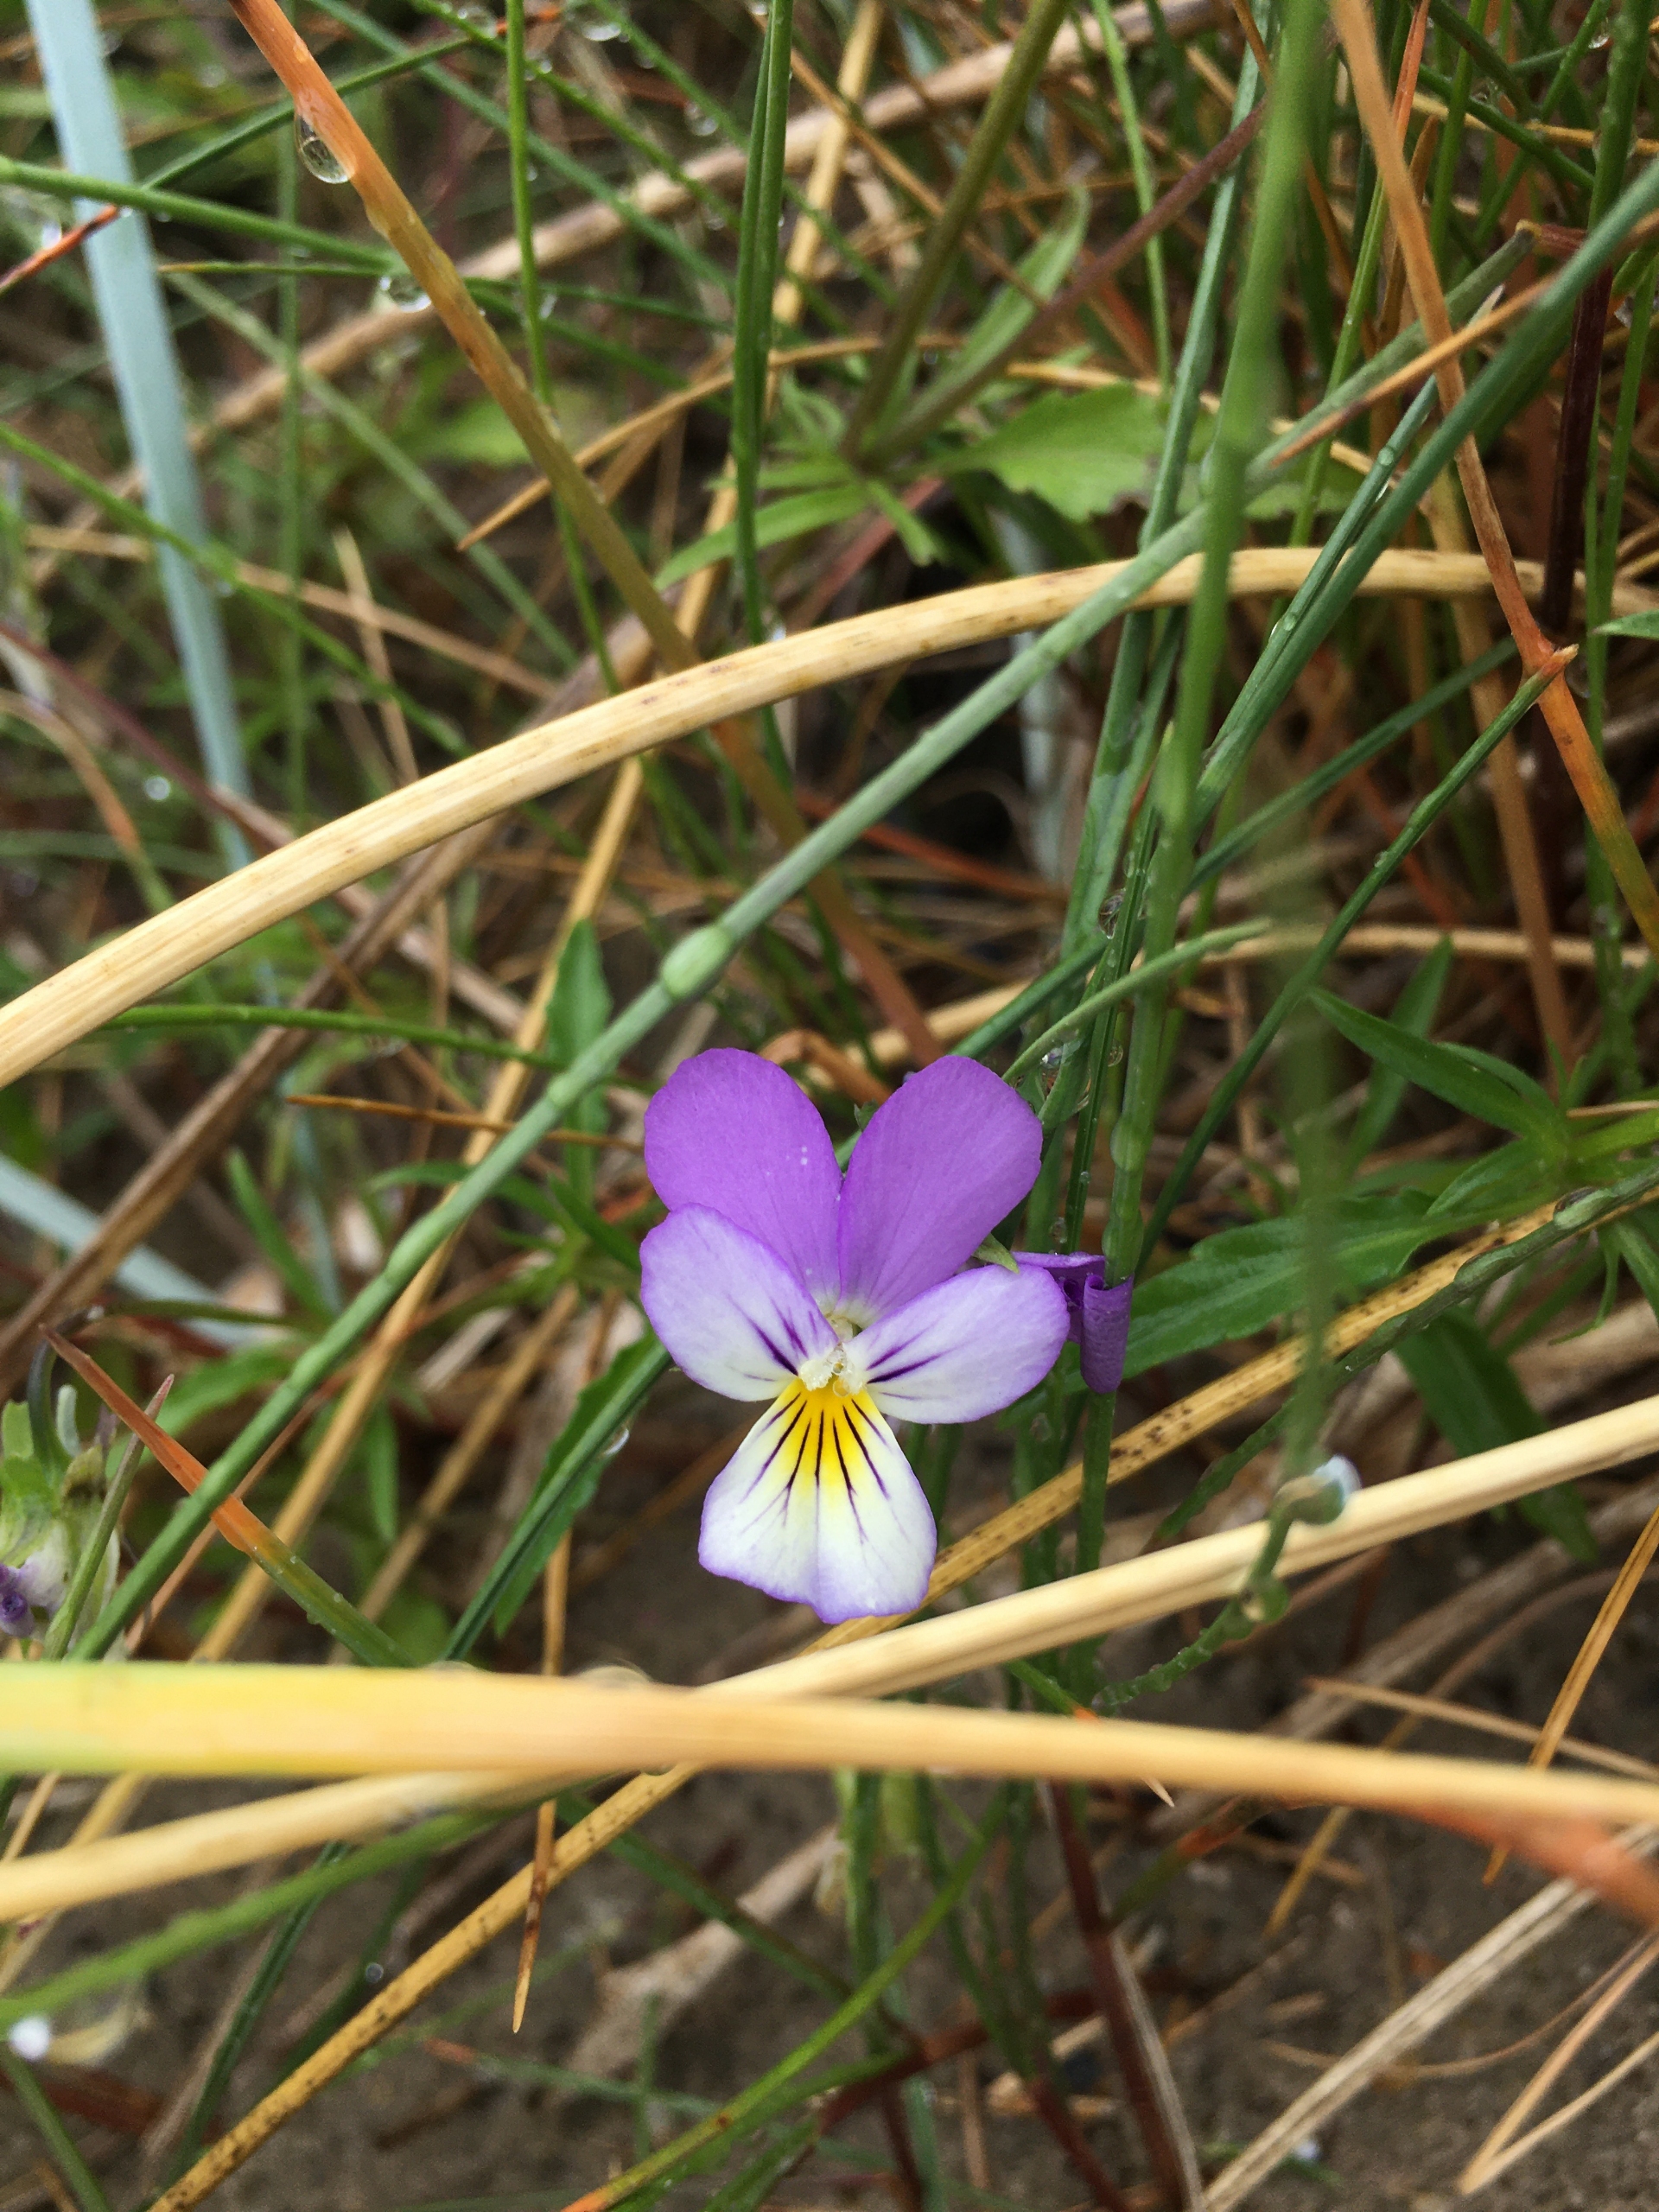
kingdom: Plantae
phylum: Tracheophyta
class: Magnoliopsida
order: Malpighiales
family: Violaceae
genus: Viola
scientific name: Viola tricolor
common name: Almindelig stedmoderblomst
